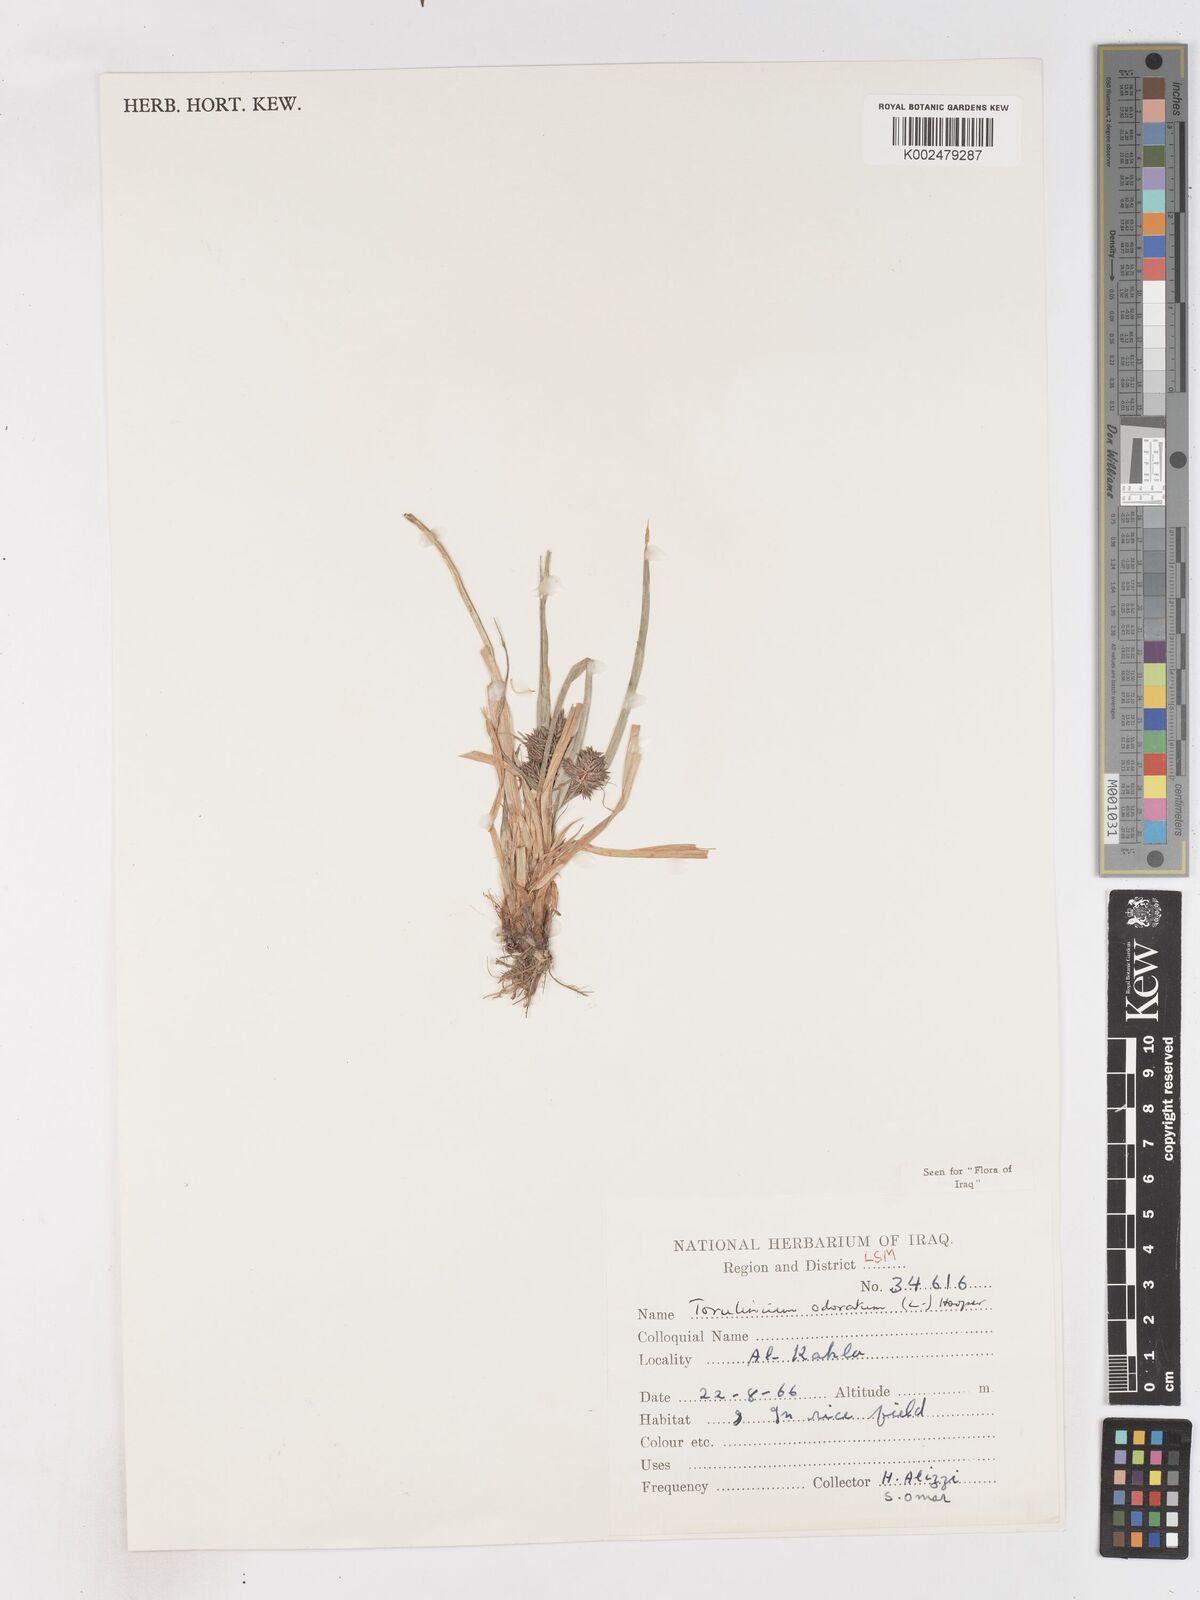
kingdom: Plantae
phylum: Tracheophyta
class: Liliopsida
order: Poales
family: Cyperaceae
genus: Cyperus
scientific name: Cyperus odoratus
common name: Fragrant flatsedge
